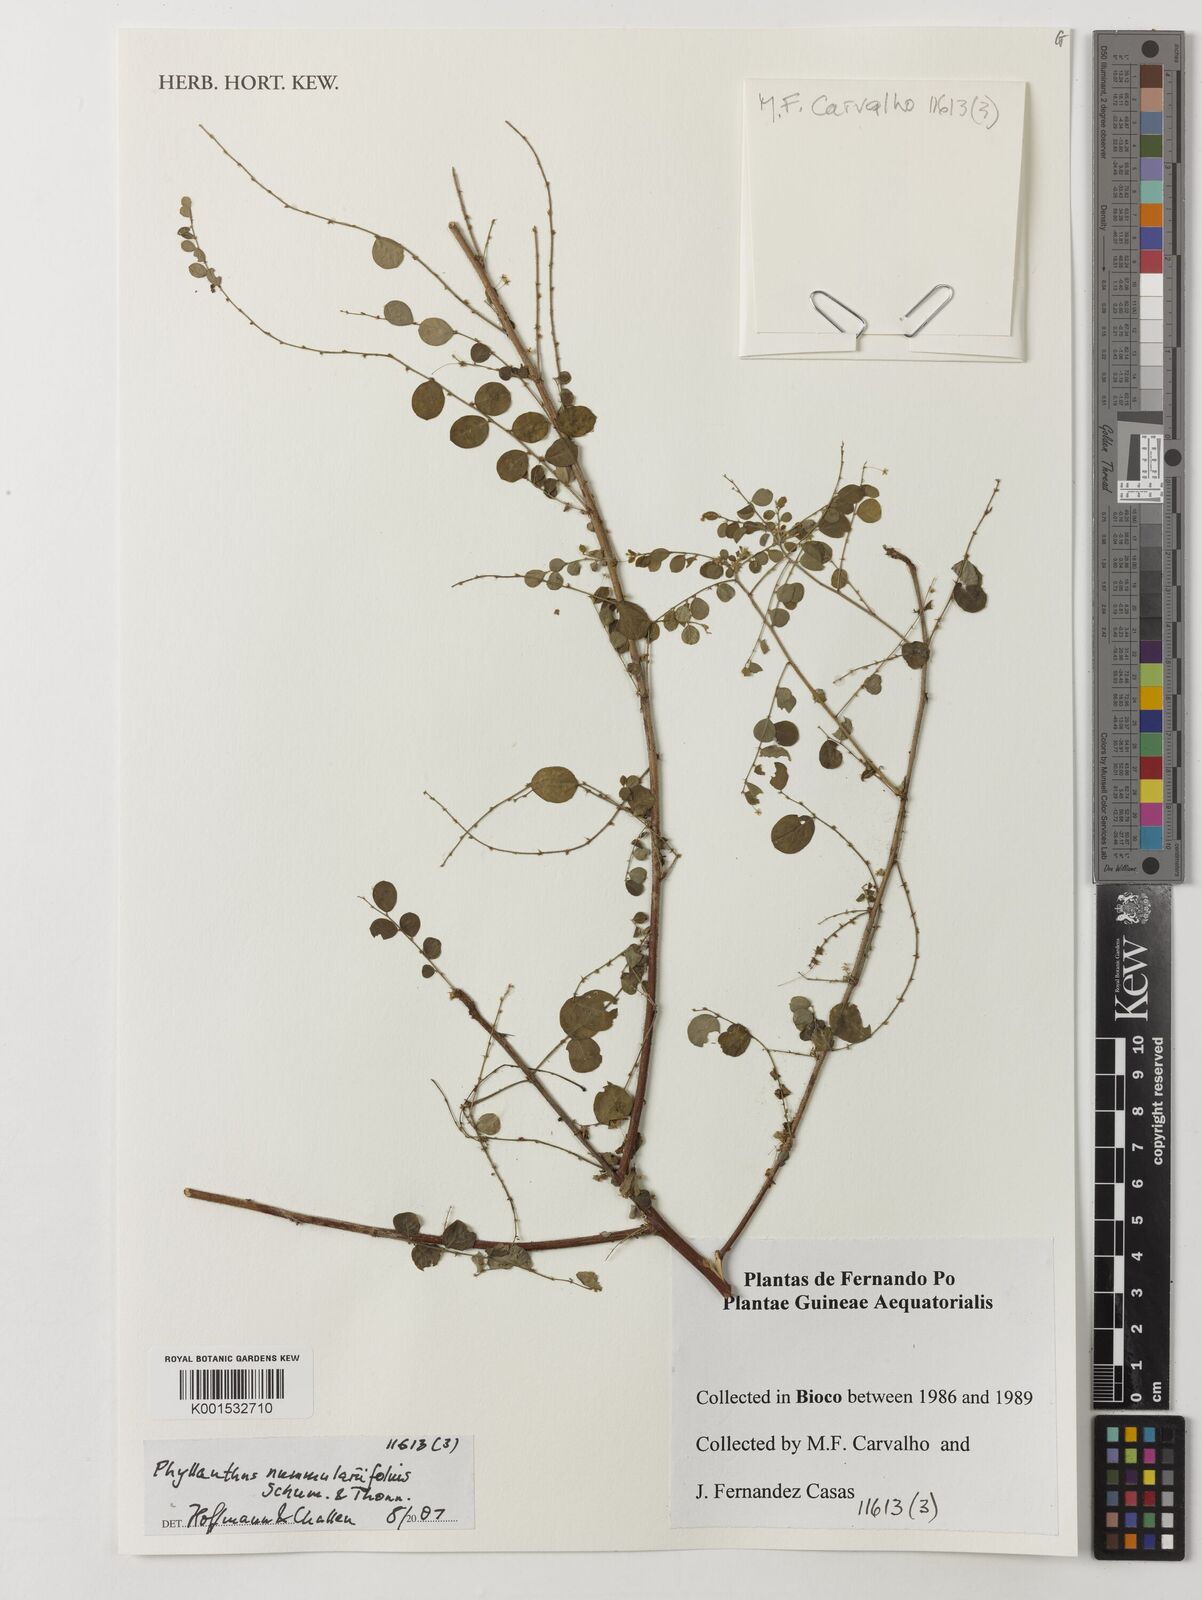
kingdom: Plantae
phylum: Tracheophyta
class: Magnoliopsida
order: Malpighiales
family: Phyllanthaceae
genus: Phyllanthus
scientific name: Phyllanthus nummulariifolius
